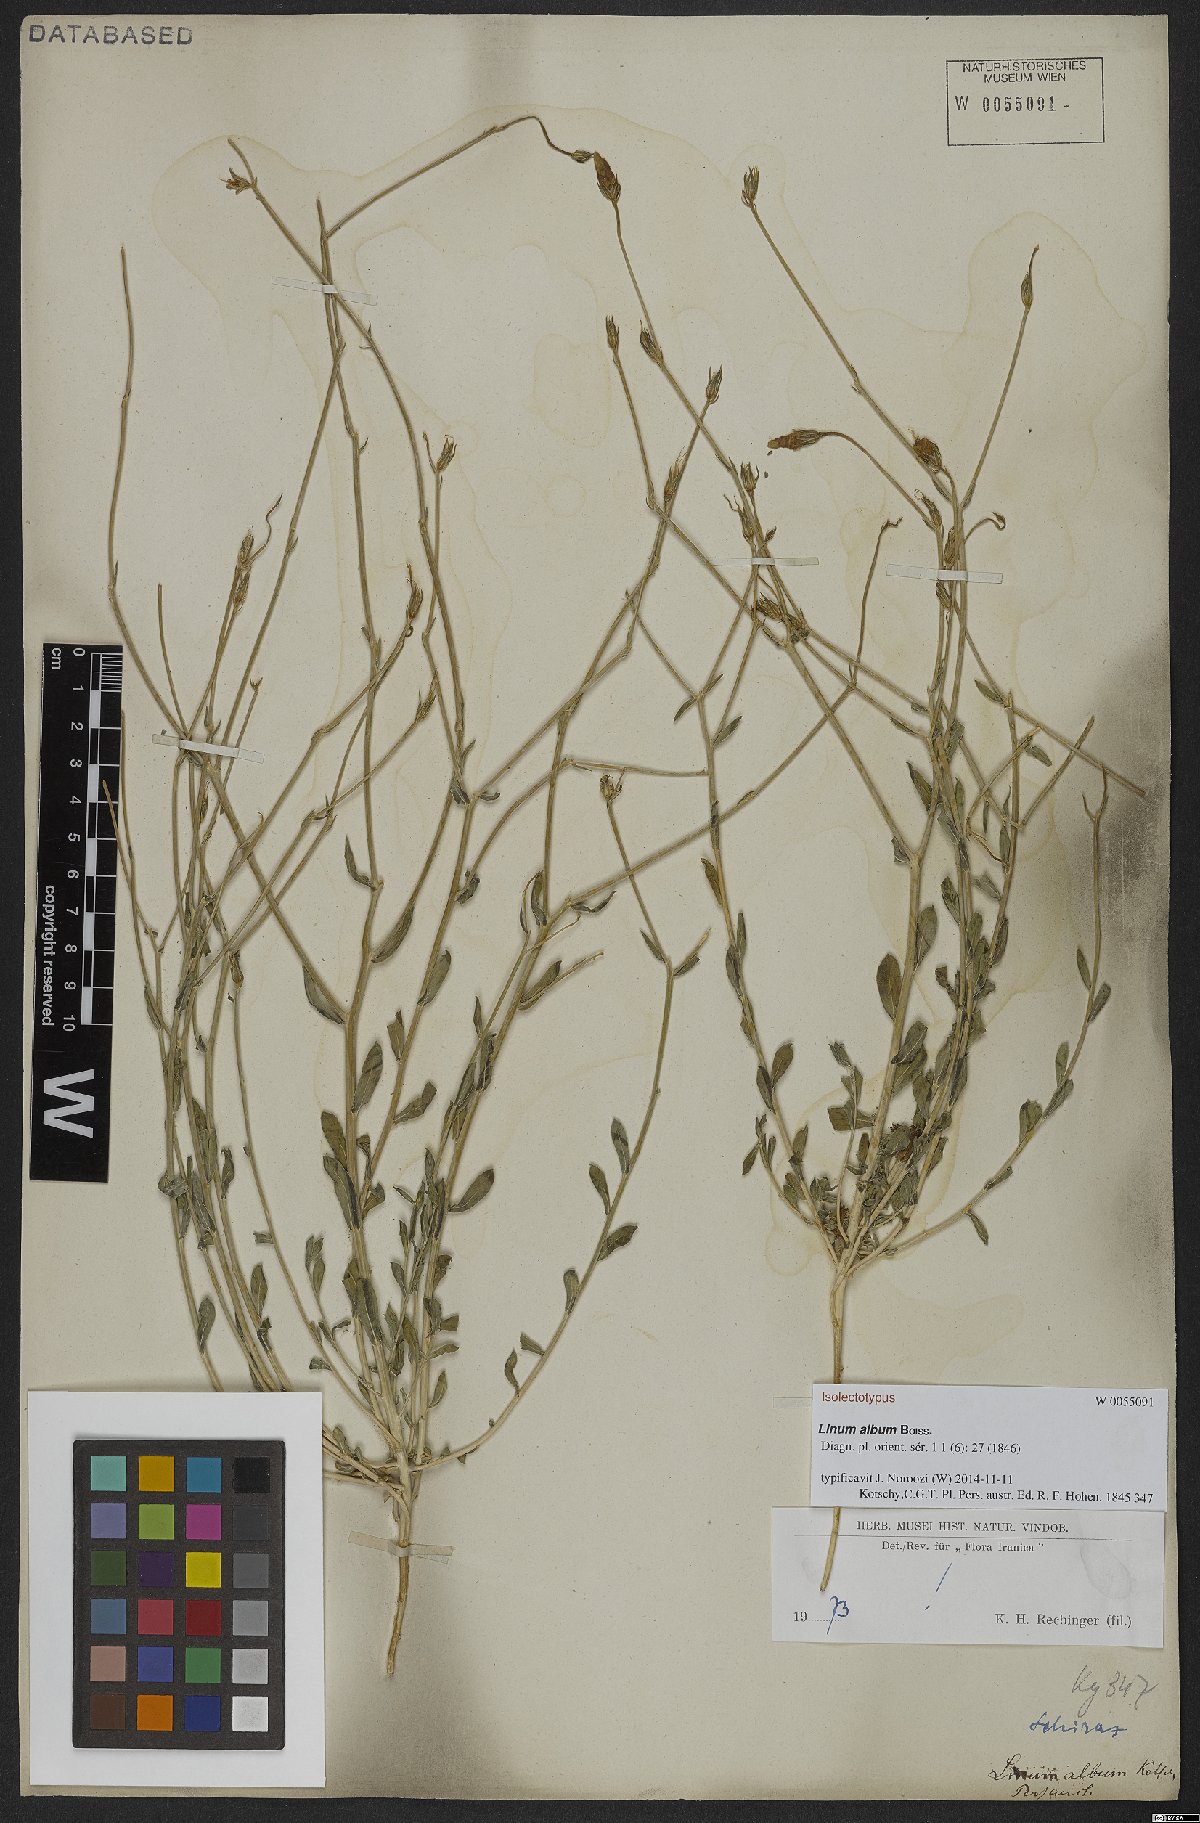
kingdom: Plantae
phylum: Tracheophyta
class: Magnoliopsida
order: Malpighiales
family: Linaceae
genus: Linum
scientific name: Linum album
